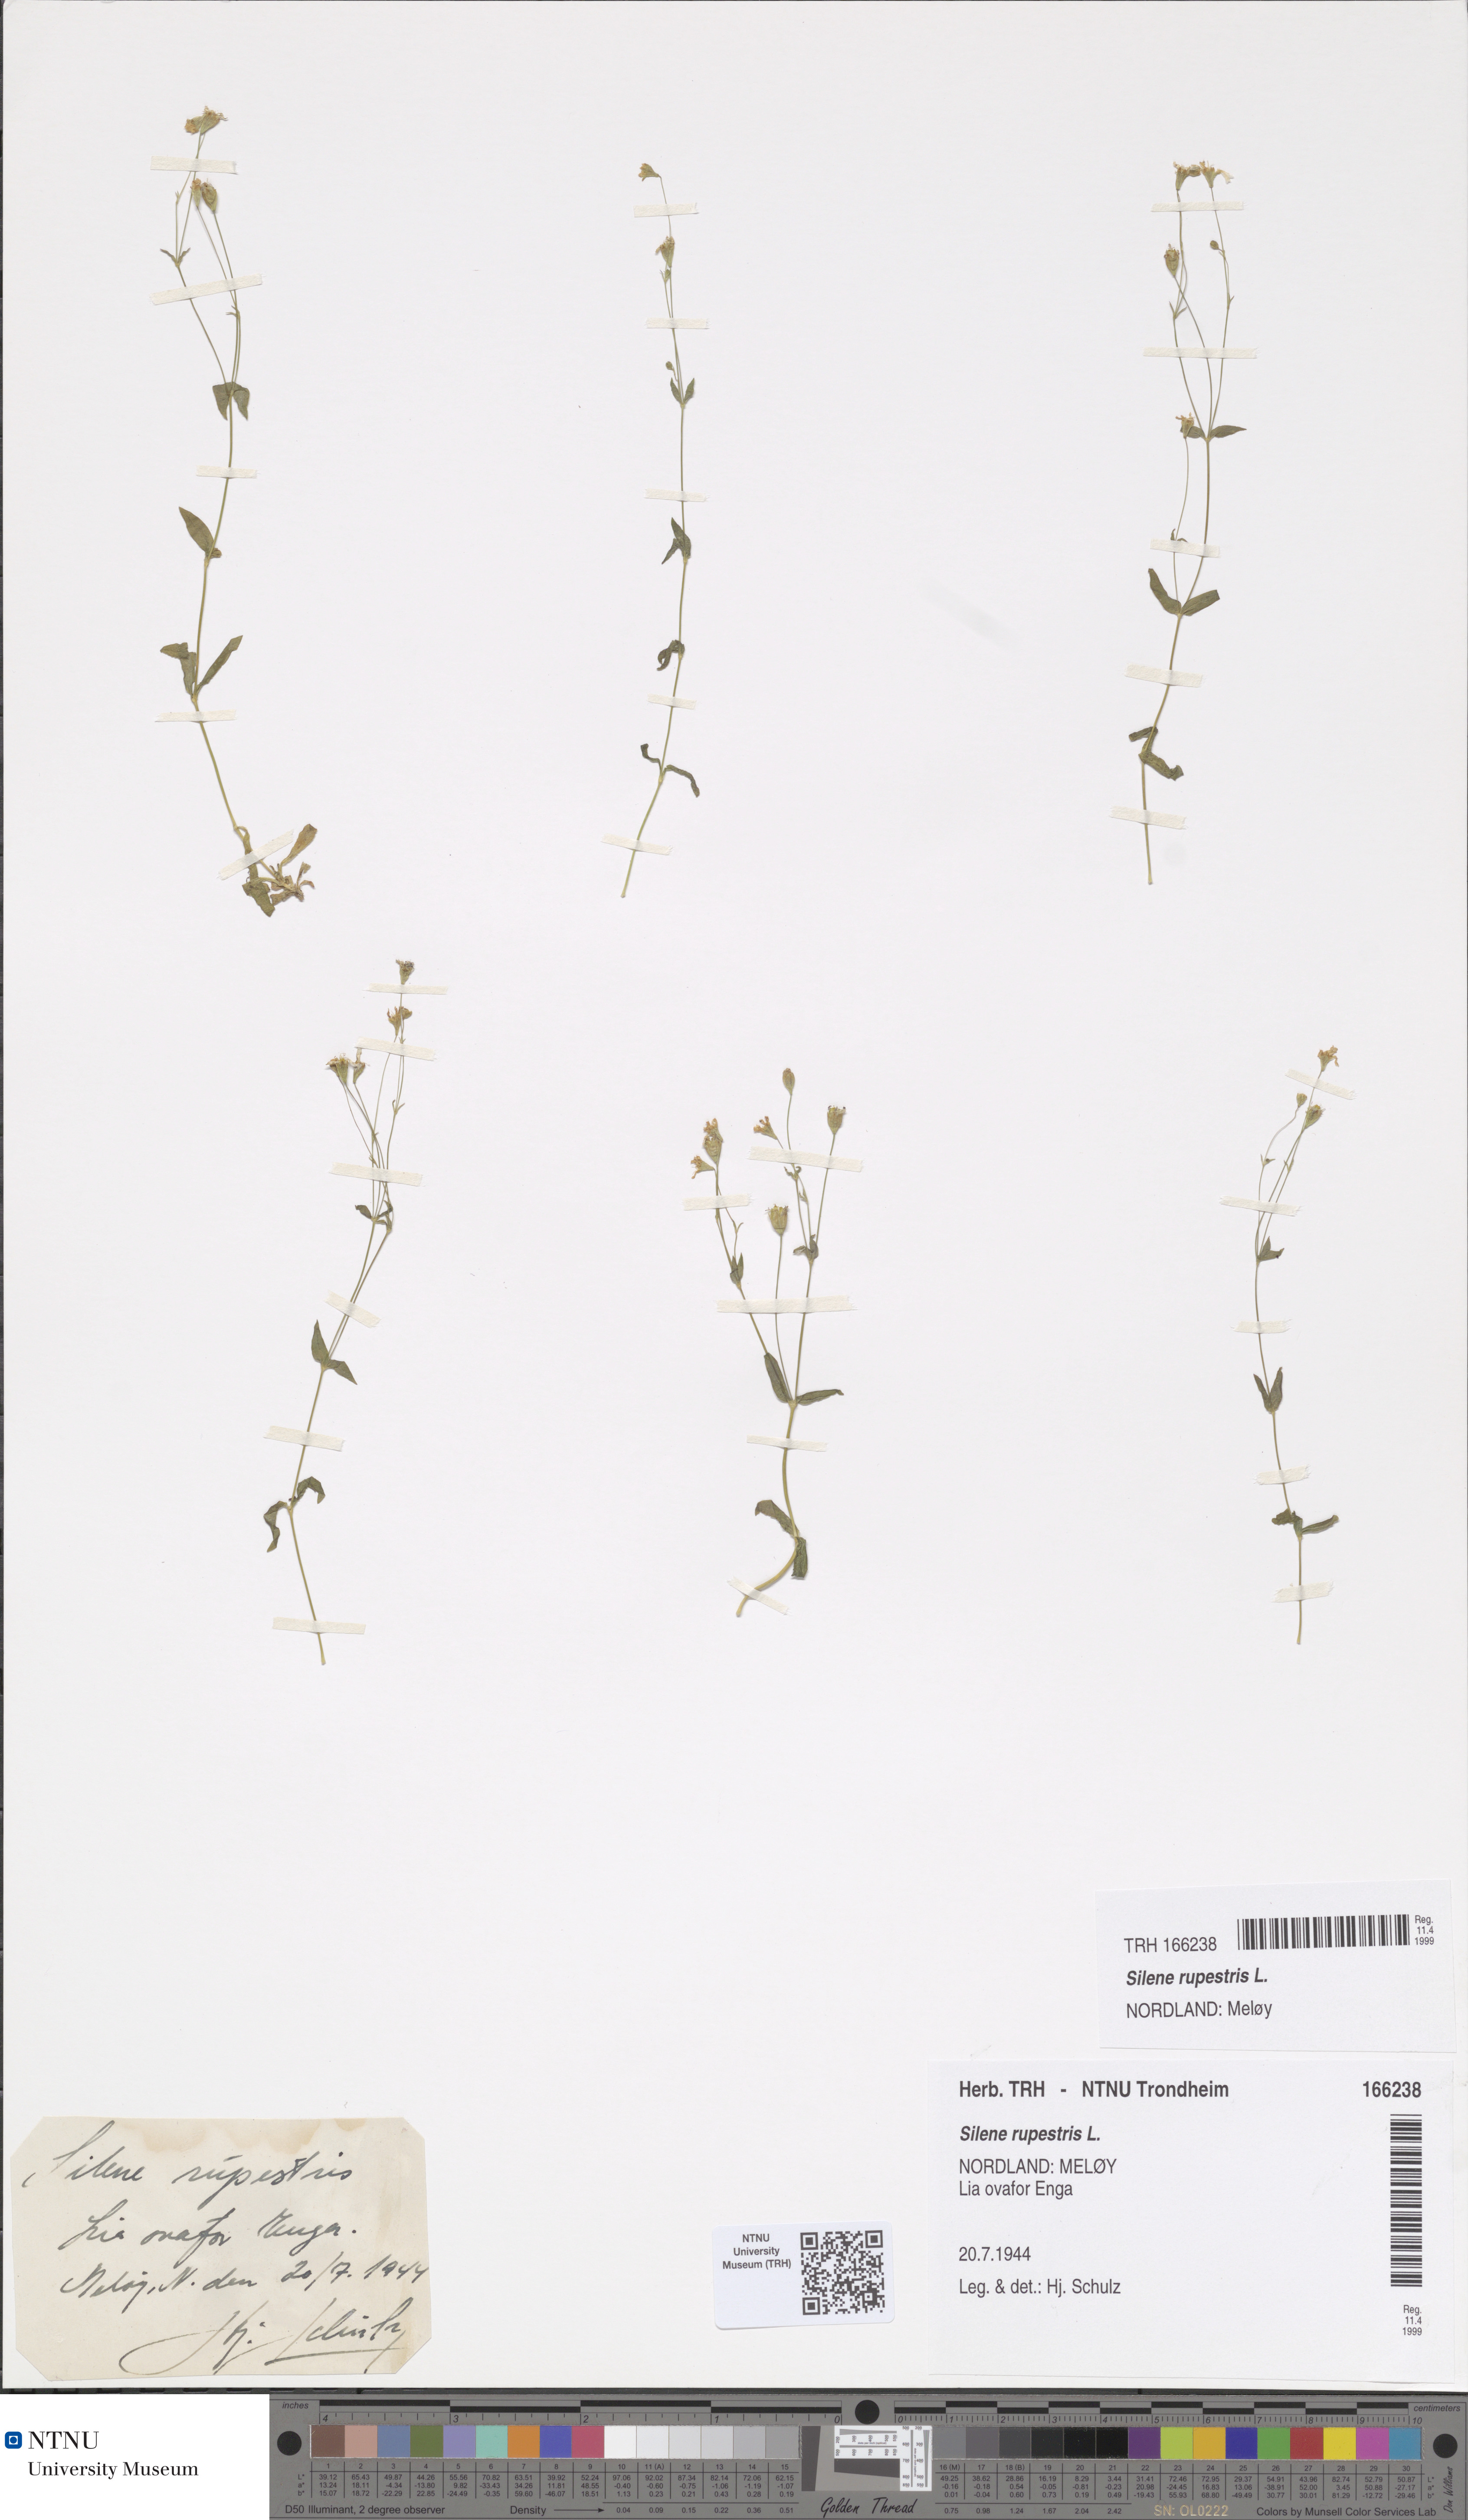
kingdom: Plantae
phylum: Tracheophyta
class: Magnoliopsida
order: Caryophyllales
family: Caryophyllaceae
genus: Atocion
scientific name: Atocion rupestre
